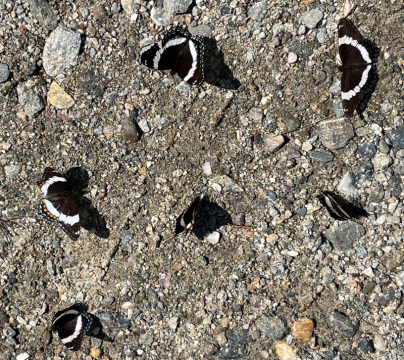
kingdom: Animalia
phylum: Arthropoda
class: Insecta
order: Lepidoptera
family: Nymphalidae
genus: Limenitis
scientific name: Limenitis arthemis
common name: Red-spotted Admiral
